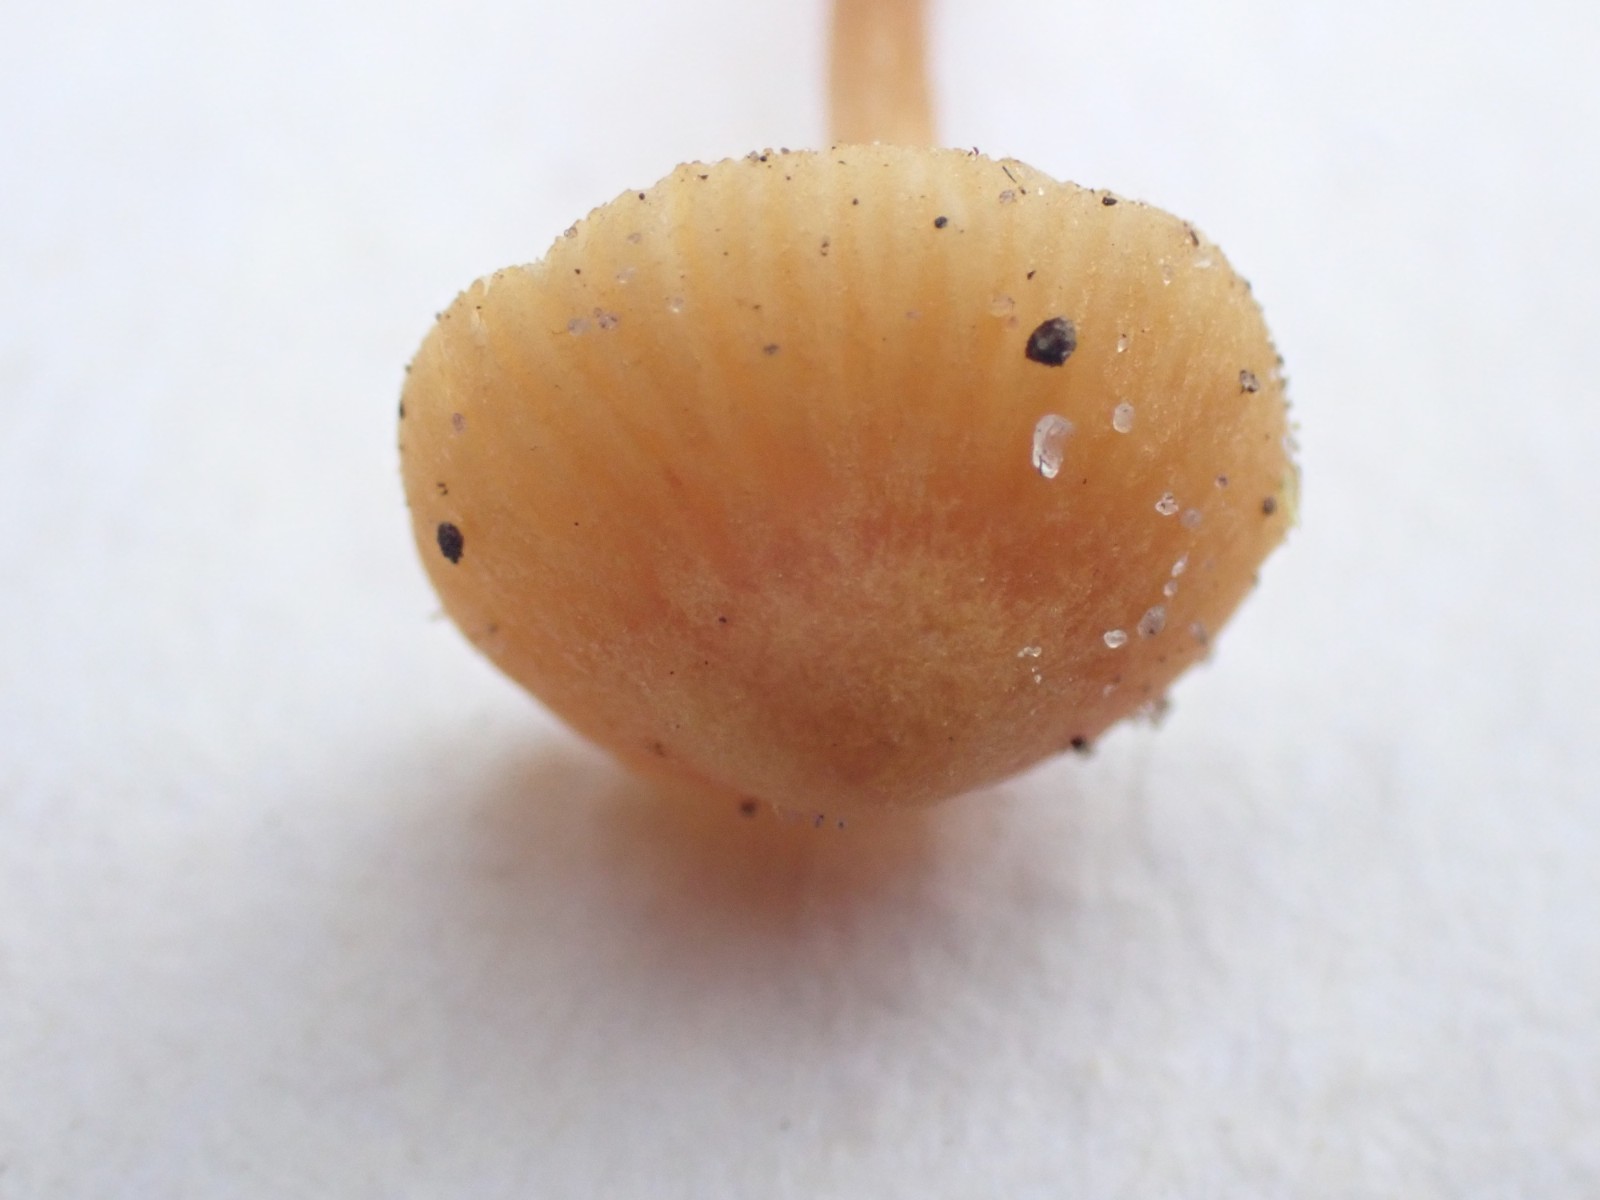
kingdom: Fungi
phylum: Basidiomycota
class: Agaricomycetes
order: Agaricales
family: Hymenogastraceae
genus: Galerina
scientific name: Galerina
